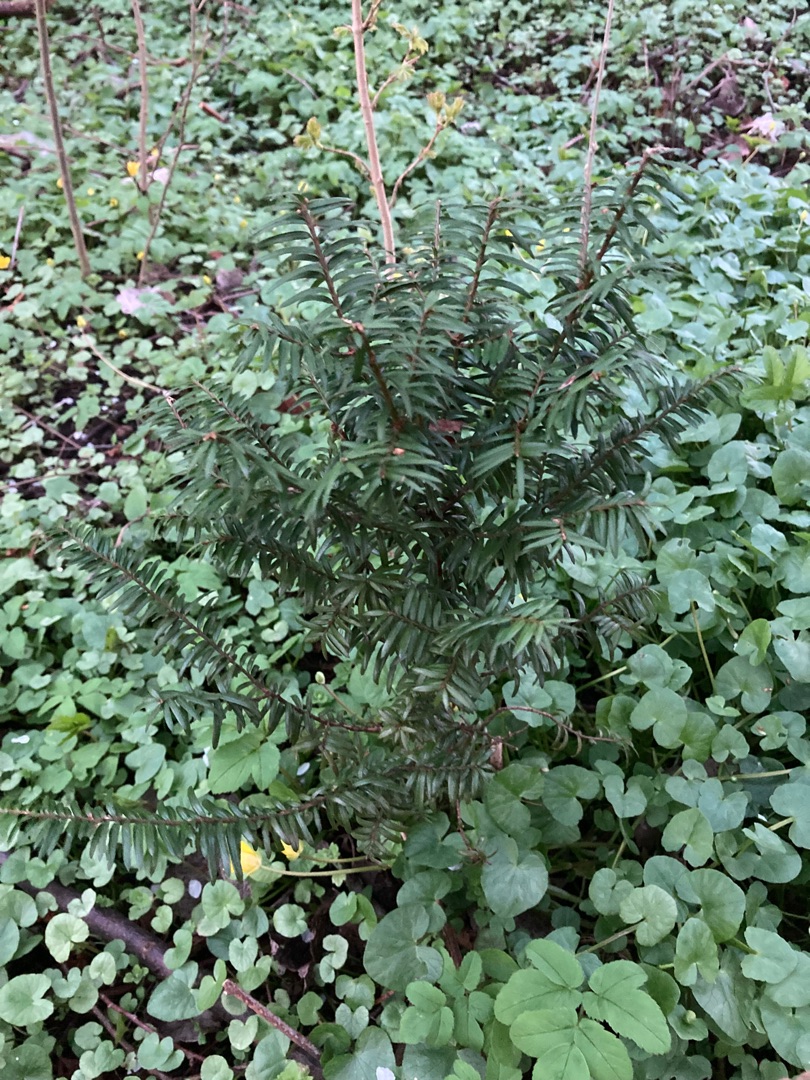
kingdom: Plantae
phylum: Tracheophyta
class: Pinopsida
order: Pinales
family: Taxaceae
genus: Taxus
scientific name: Taxus baccata
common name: Almindelig taks
